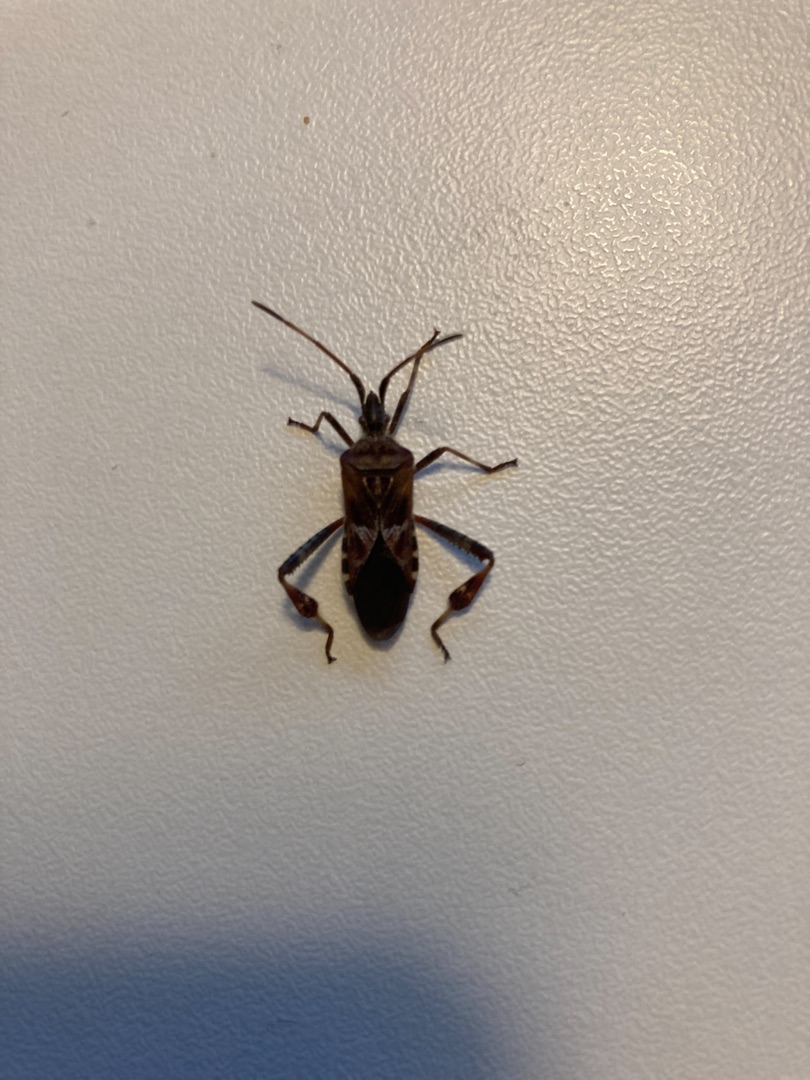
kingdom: Animalia
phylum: Arthropoda
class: Insecta
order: Hemiptera
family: Coreidae
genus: Leptoglossus
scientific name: Leptoglossus occidentalis
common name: Amerikansk fyrretæge
